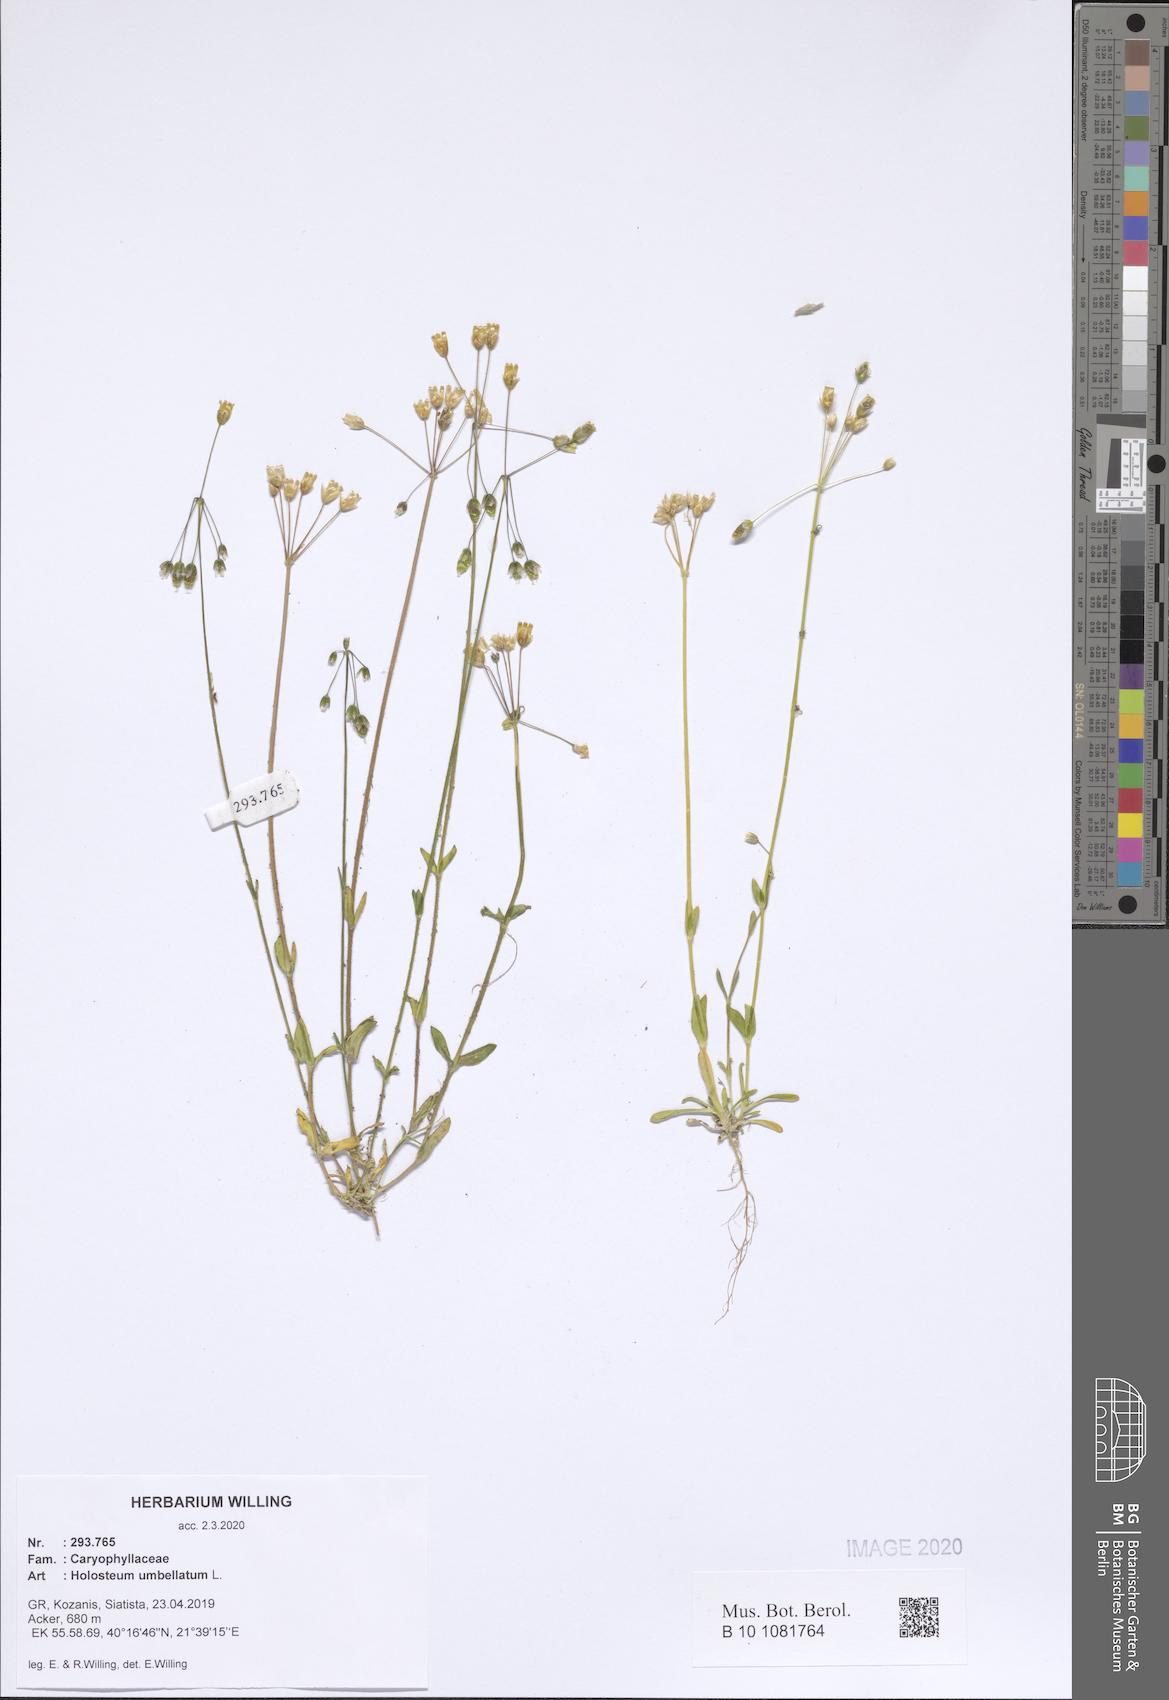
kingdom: Plantae
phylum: Tracheophyta
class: Magnoliopsida
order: Caryophyllales
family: Caryophyllaceae
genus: Holosteum
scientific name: Holosteum umbellatum
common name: Jagged chickweed
